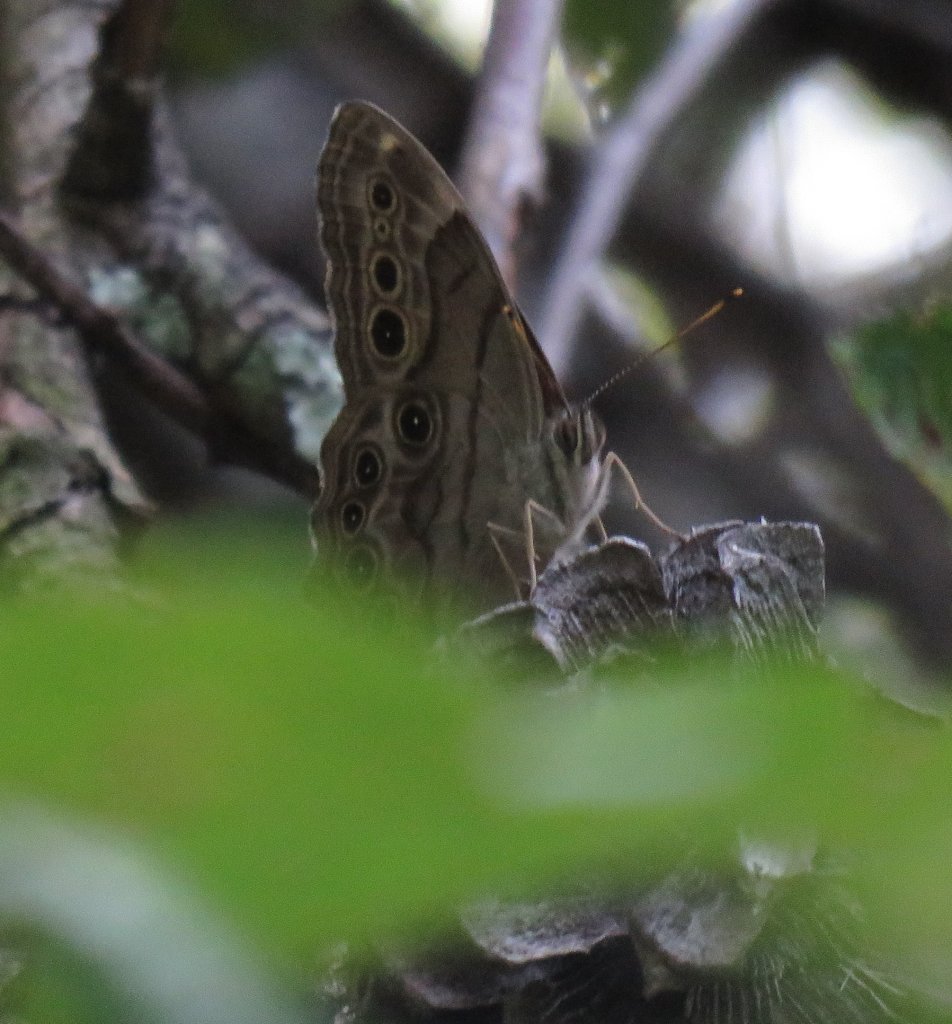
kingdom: Animalia
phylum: Arthropoda
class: Insecta
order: Lepidoptera
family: Nymphalidae
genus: Lethe
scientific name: Lethe anthedon
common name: Northern Pearly-Eye
